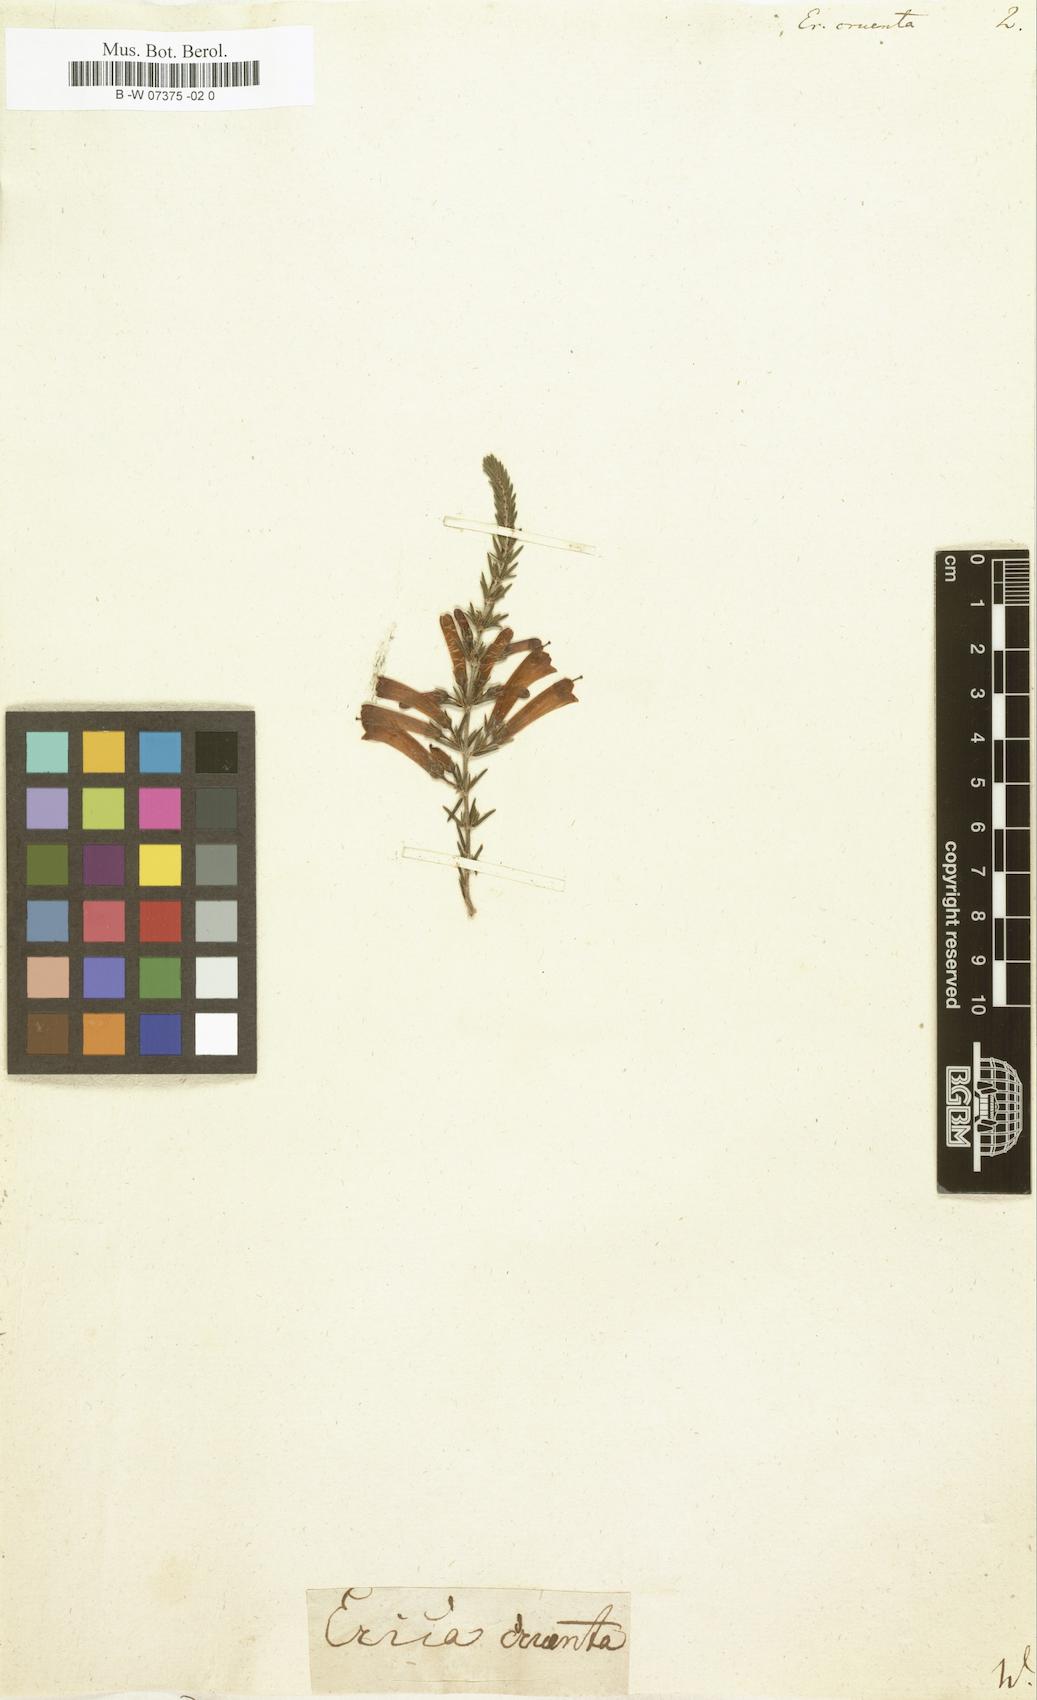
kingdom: Plantae
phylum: Tracheophyta
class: Magnoliopsida
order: Ericales
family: Ericaceae
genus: Erica
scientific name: Erica cruenta
